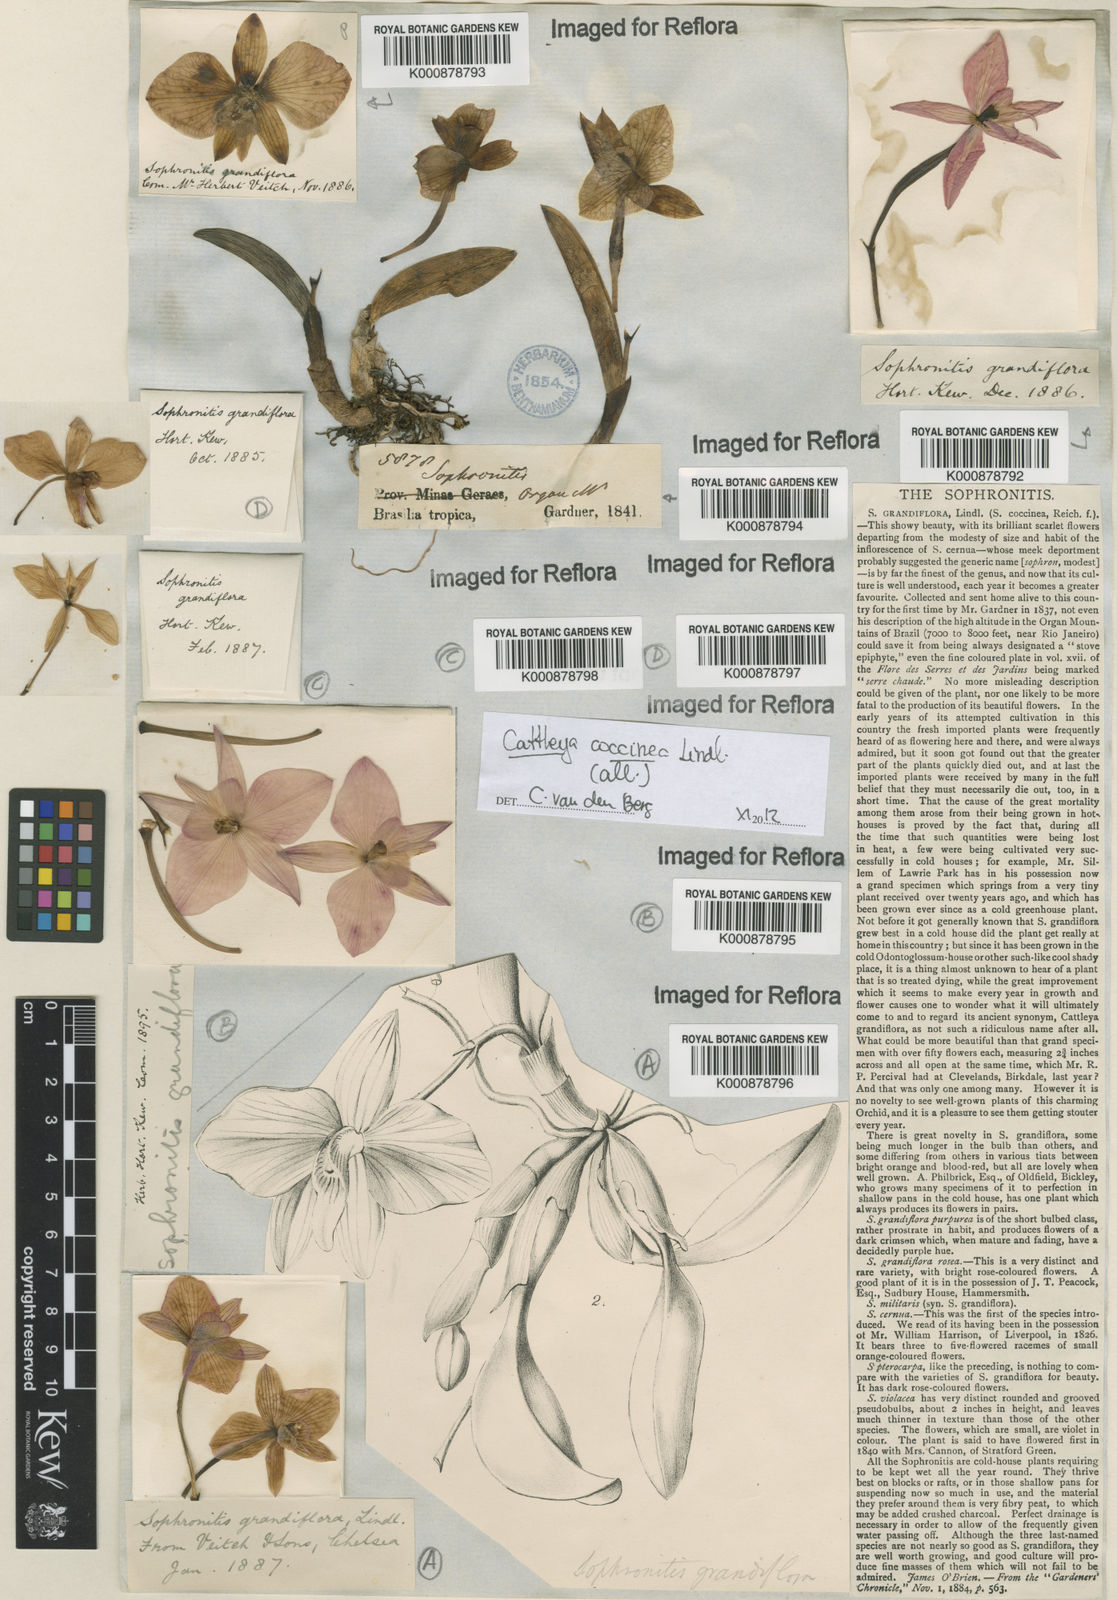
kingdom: Plantae
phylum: Tracheophyta
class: Liliopsida
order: Asparagales
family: Orchidaceae
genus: Cattleya
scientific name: Cattleya coccinea
